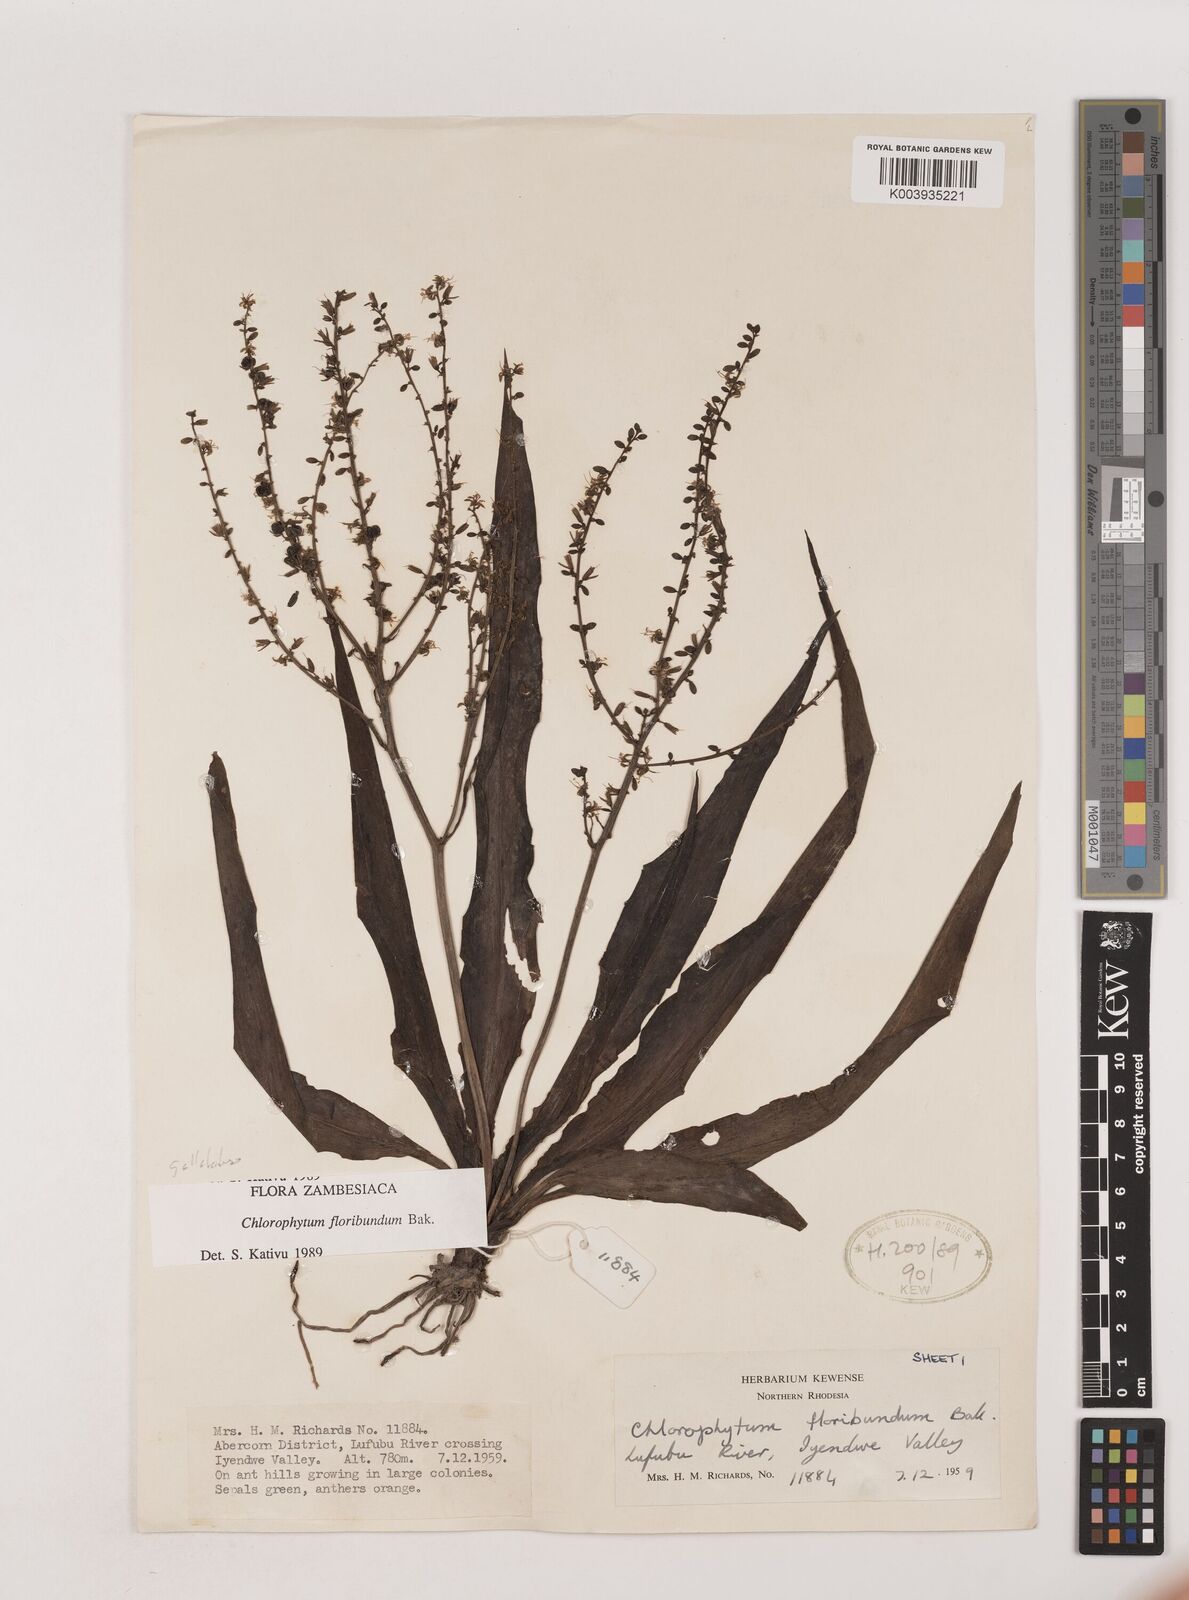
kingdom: Plantae
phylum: Tracheophyta
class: Liliopsida
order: Asparagales
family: Asparagaceae
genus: Chlorophytum
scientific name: Chlorophytum gallabatense
